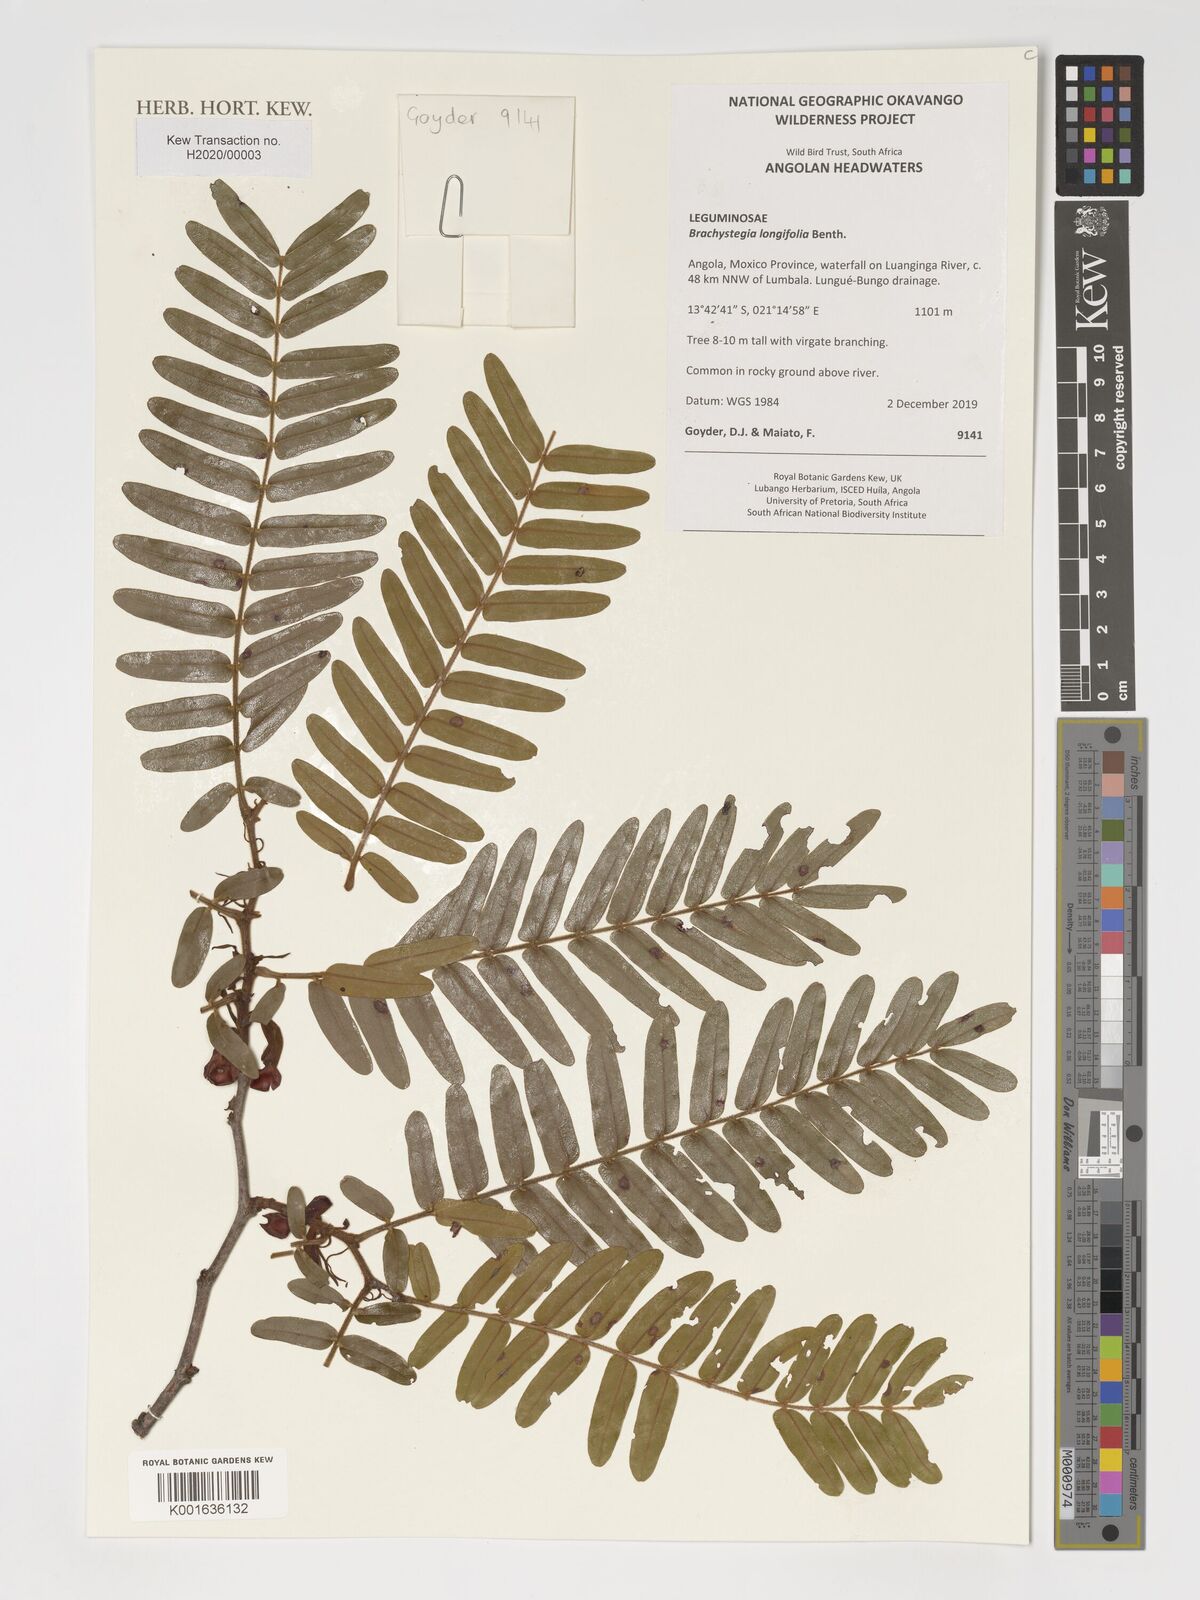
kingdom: Plantae
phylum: Tracheophyta
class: Magnoliopsida
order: Fabales
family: Fabaceae
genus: Brachystegia
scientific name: Brachystegia longifolia
